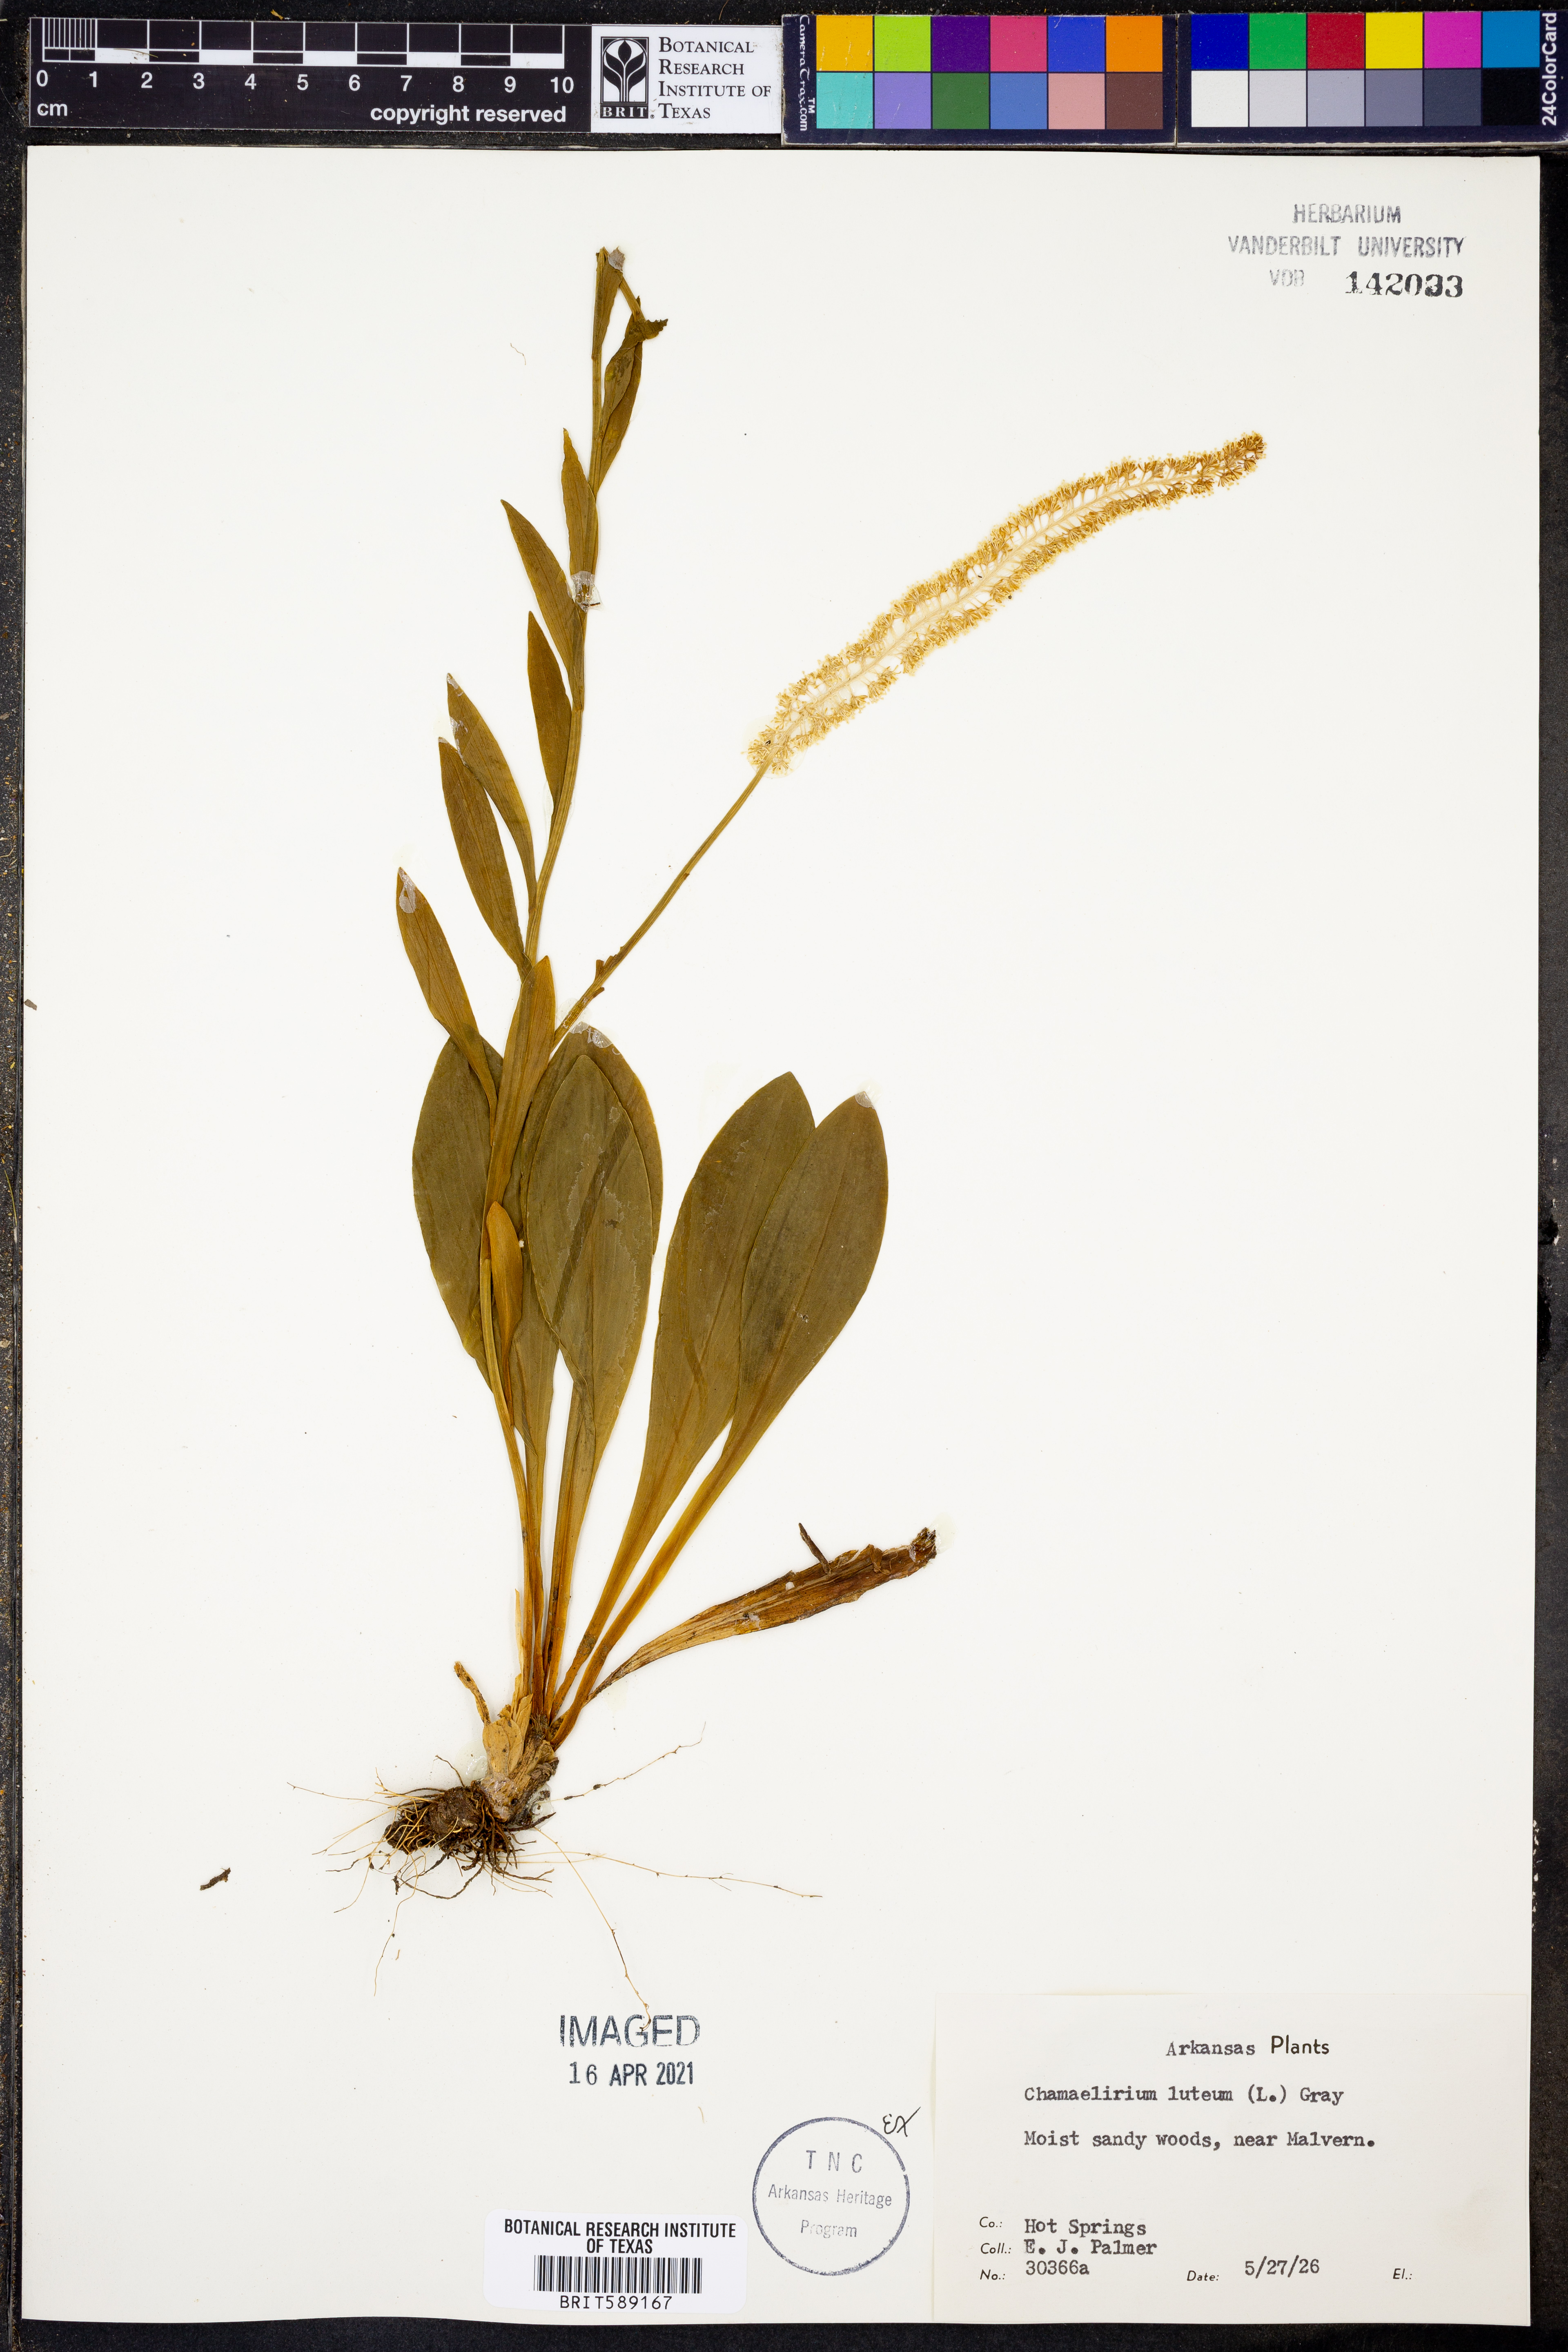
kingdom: Plantae
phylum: Tracheophyta
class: Liliopsida
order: Liliales
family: Melanthiaceae
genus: Chamaelirium
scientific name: Chamaelirium luteum
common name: Fairy-wand
